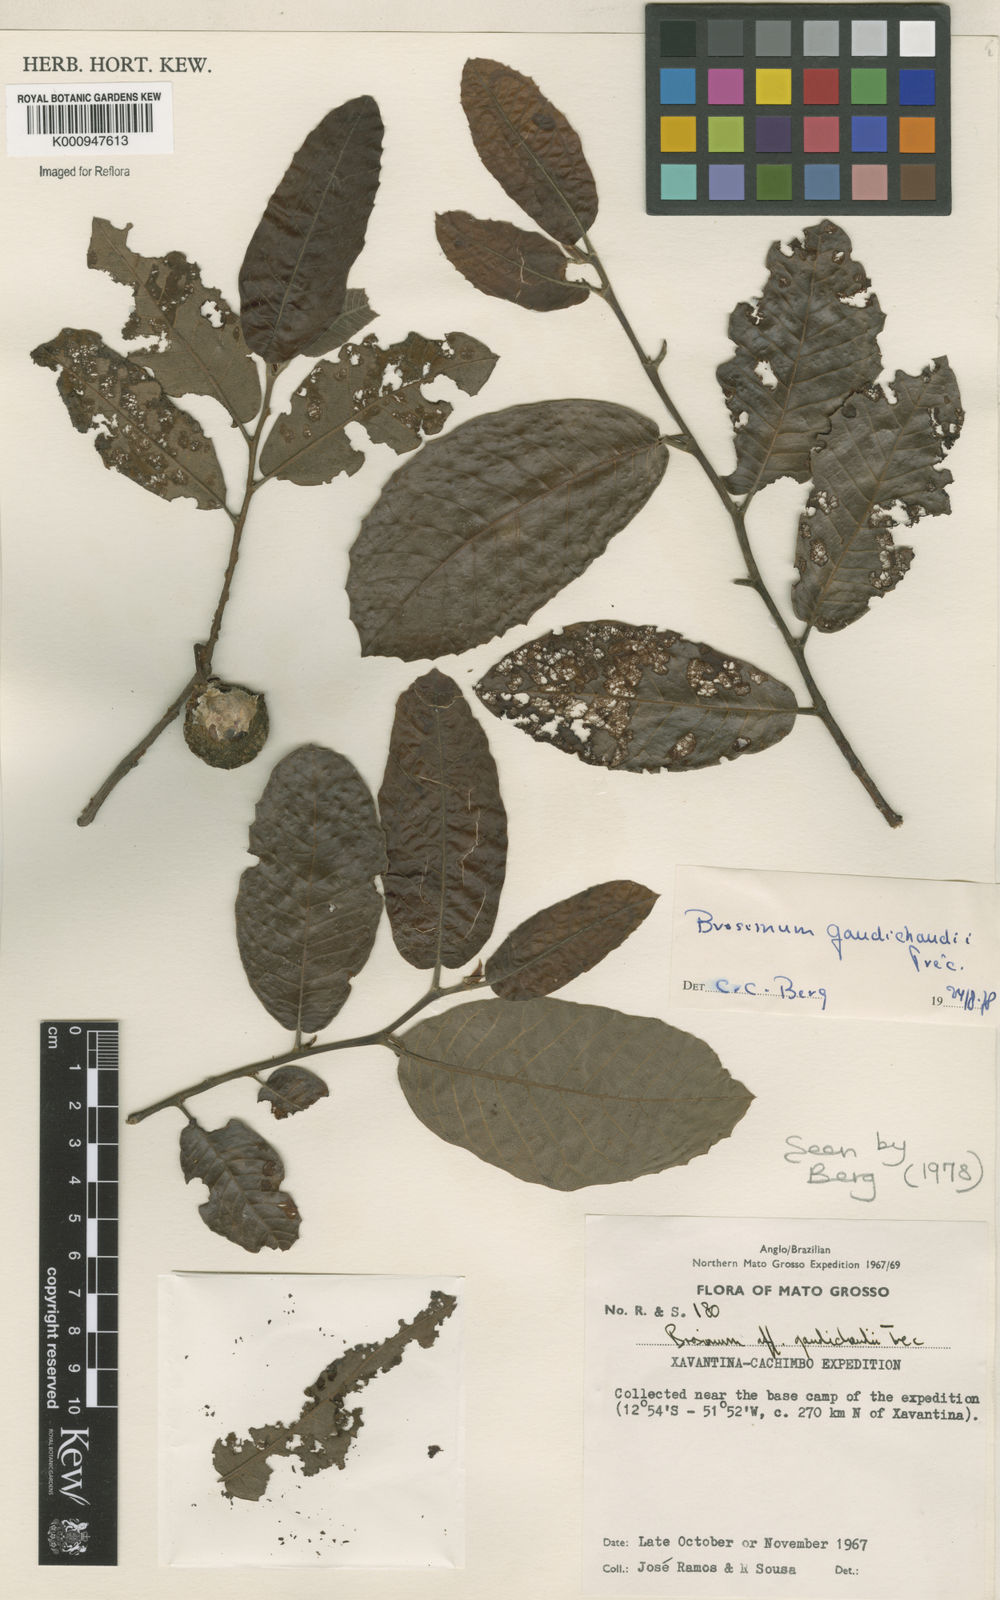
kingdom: Plantae
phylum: Tracheophyta
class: Magnoliopsida
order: Rosales
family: Moraceae
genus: Brosimum
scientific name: Brosimum
